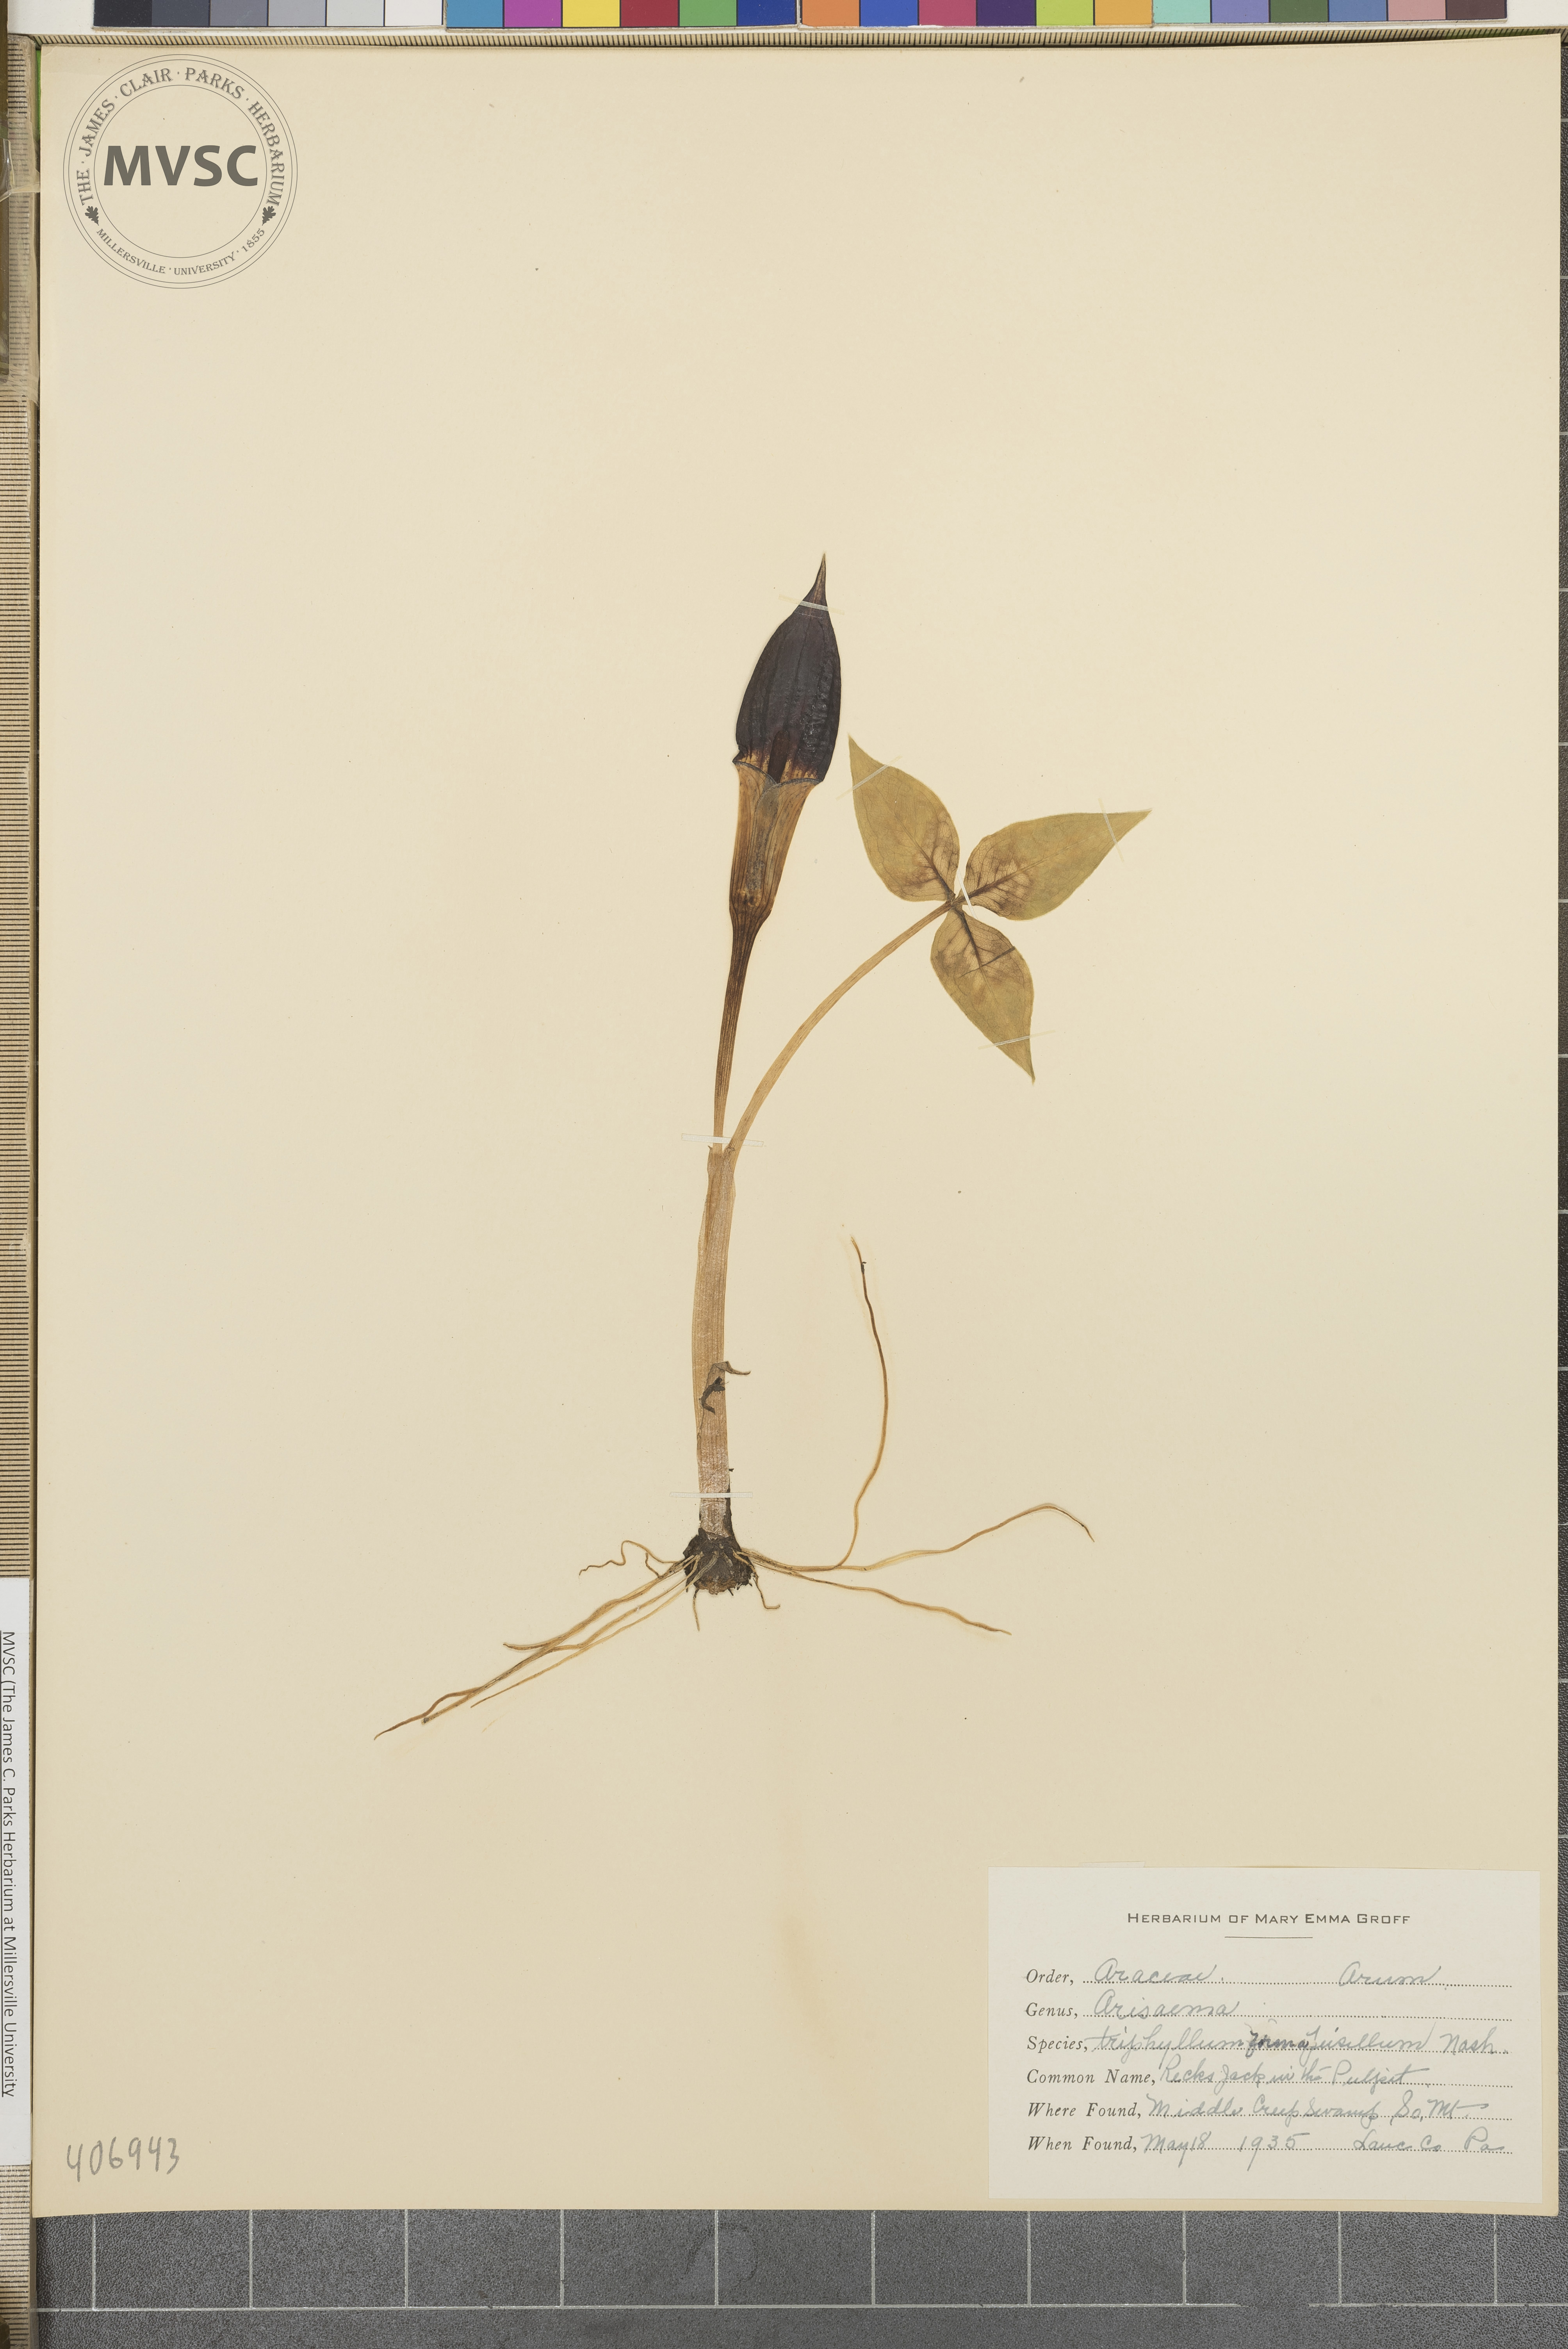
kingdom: Plantae
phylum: Tracheophyta
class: Liliopsida
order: Alismatales
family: Araceae
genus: Arisaema
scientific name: Arisaema triphyllum
